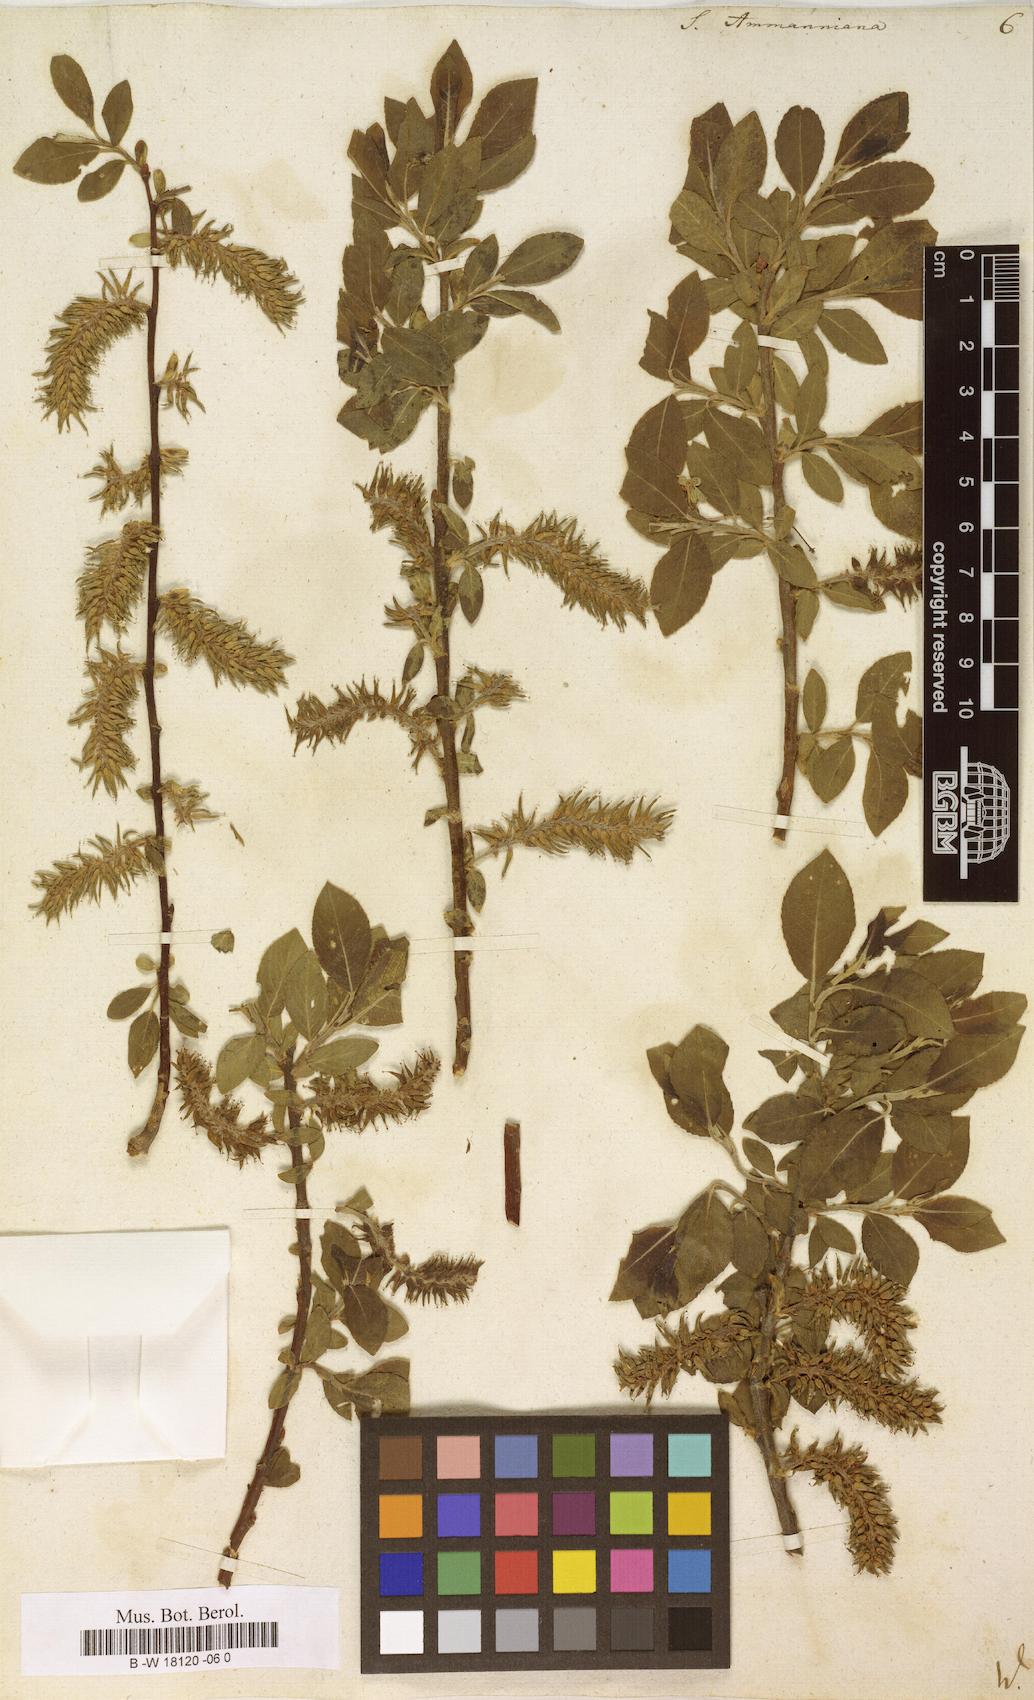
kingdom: Plantae
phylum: Tracheophyta
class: Magnoliopsida
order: Malpighiales
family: Salicaceae
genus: Salix
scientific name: Salix myrsinifolia
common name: Dark-leaved willow
